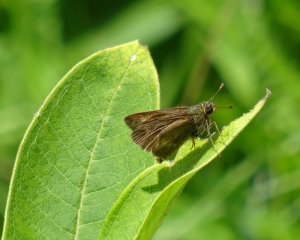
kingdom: Animalia
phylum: Arthropoda
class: Insecta
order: Lepidoptera
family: Hesperiidae
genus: Polites
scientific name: Polites
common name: Long Dash Skipper
